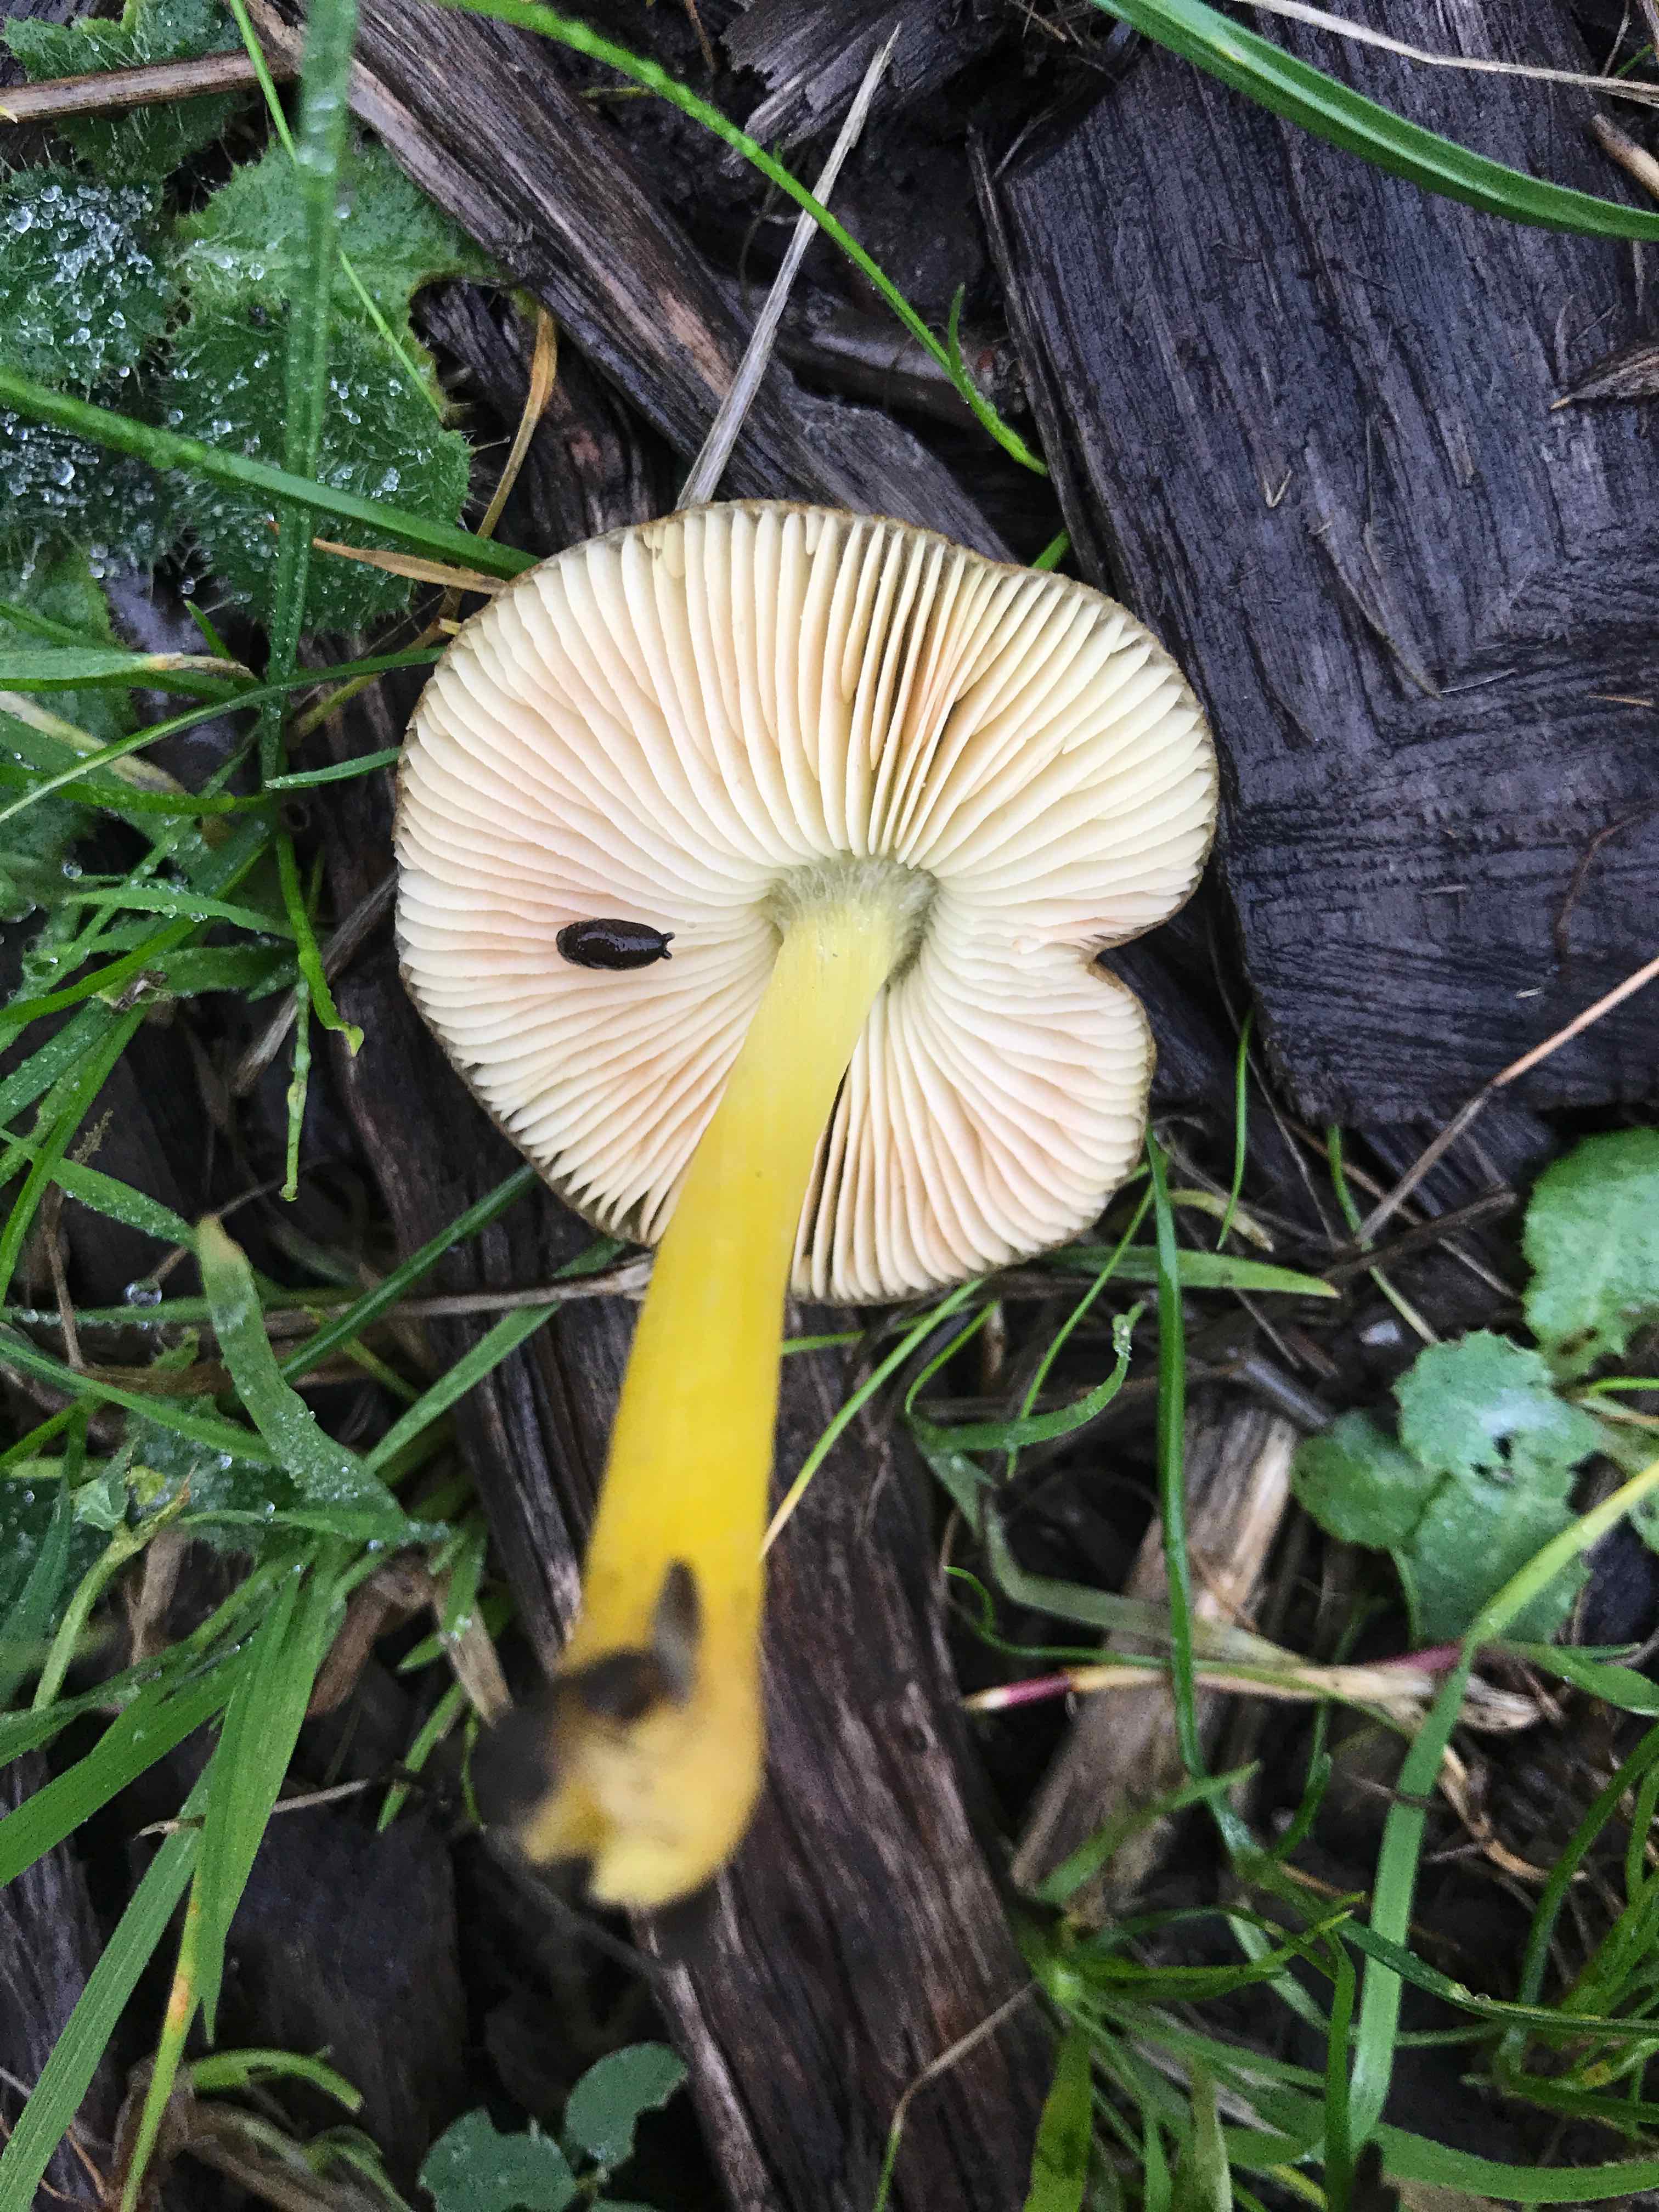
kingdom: Fungi
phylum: Basidiomycota
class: Agaricomycetes
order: Agaricales
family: Pluteaceae
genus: Pluteus
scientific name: Pluteus romellii
